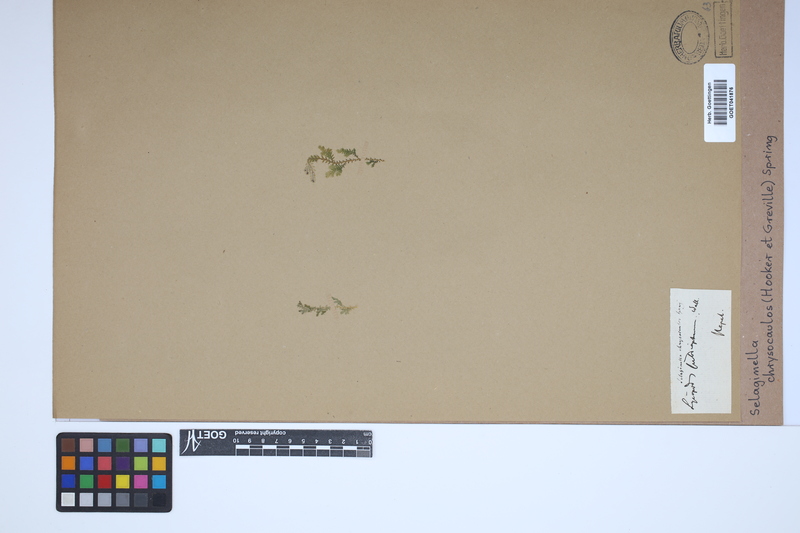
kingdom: Plantae
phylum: Tracheophyta
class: Lycopodiopsida
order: Selaginellales
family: Selaginellaceae
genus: Selaginella
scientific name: Selaginella chrysocaulos
